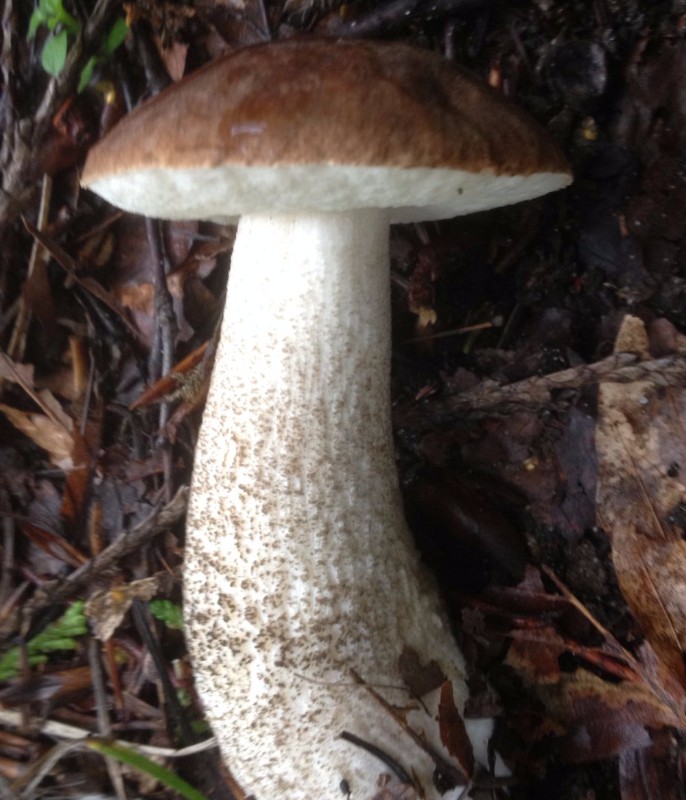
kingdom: Fungi
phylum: Basidiomycota
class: Agaricomycetes
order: Boletales
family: Boletaceae
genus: Leccinum
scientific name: Leccinum scabrum
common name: brun skælrørhat
